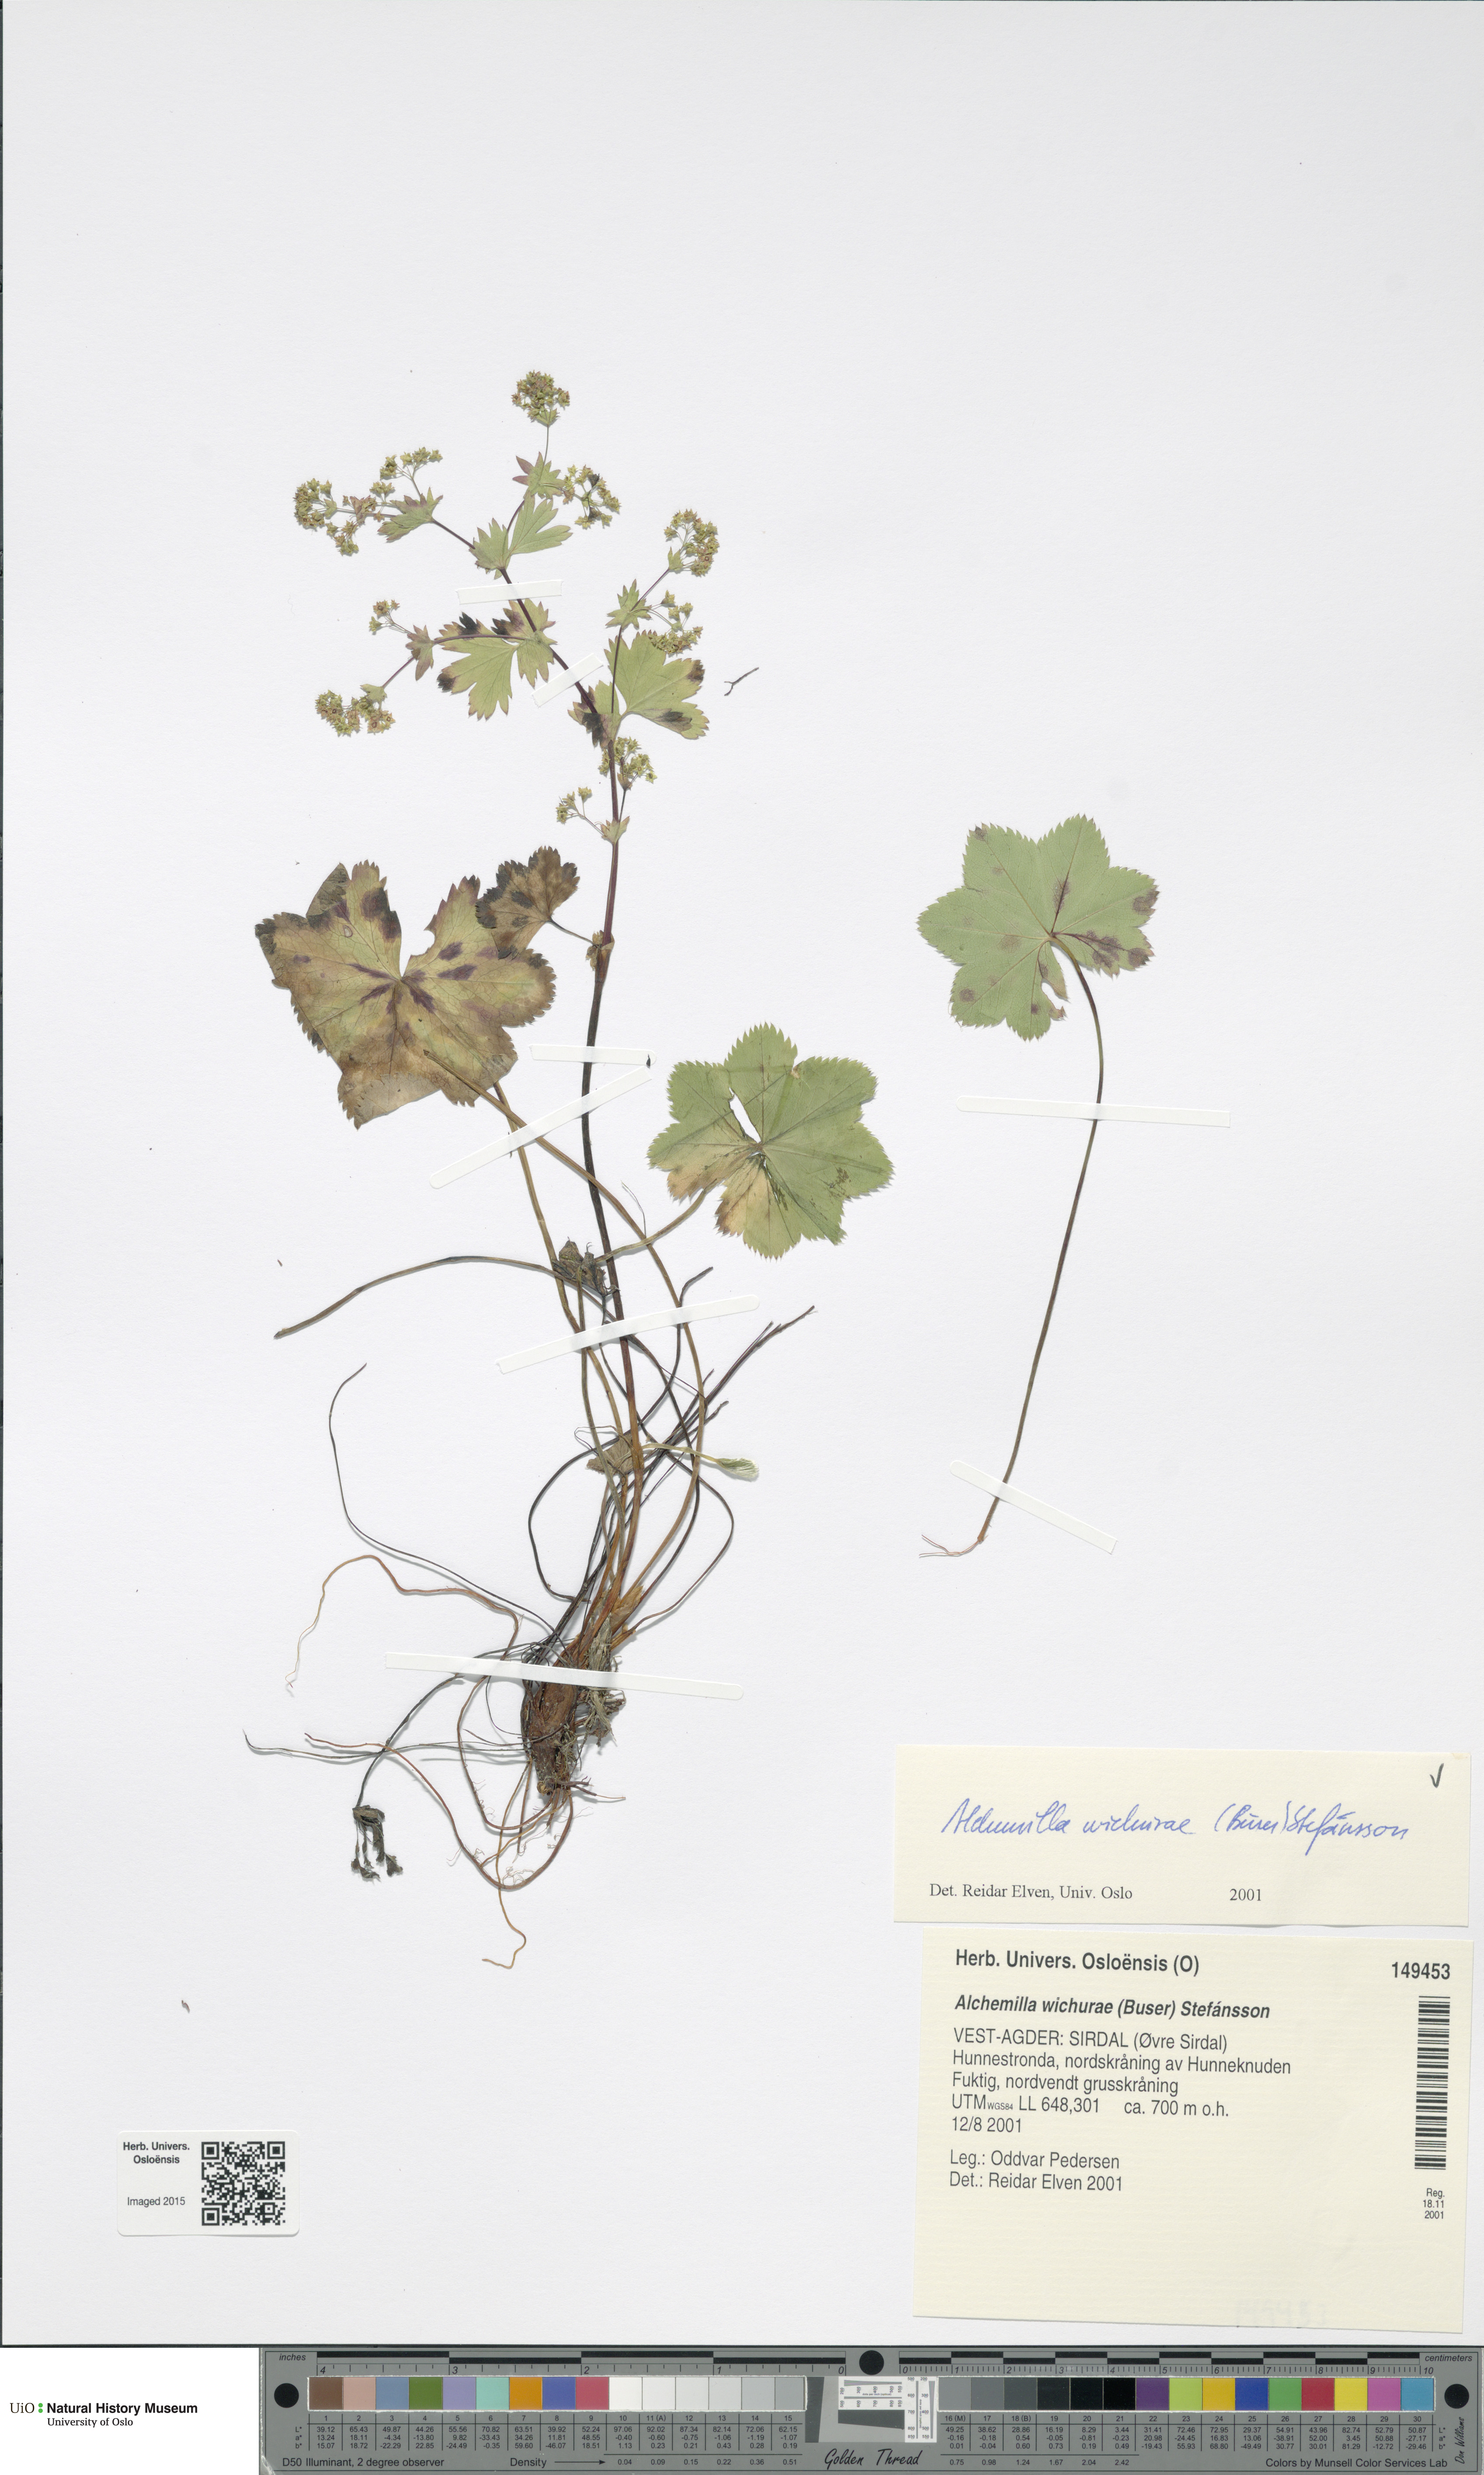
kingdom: Plantae
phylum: Tracheophyta
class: Magnoliopsida
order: Rosales
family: Rosaceae
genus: Alchemilla
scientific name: Alchemilla wichurae
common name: Rock lady's mantle
